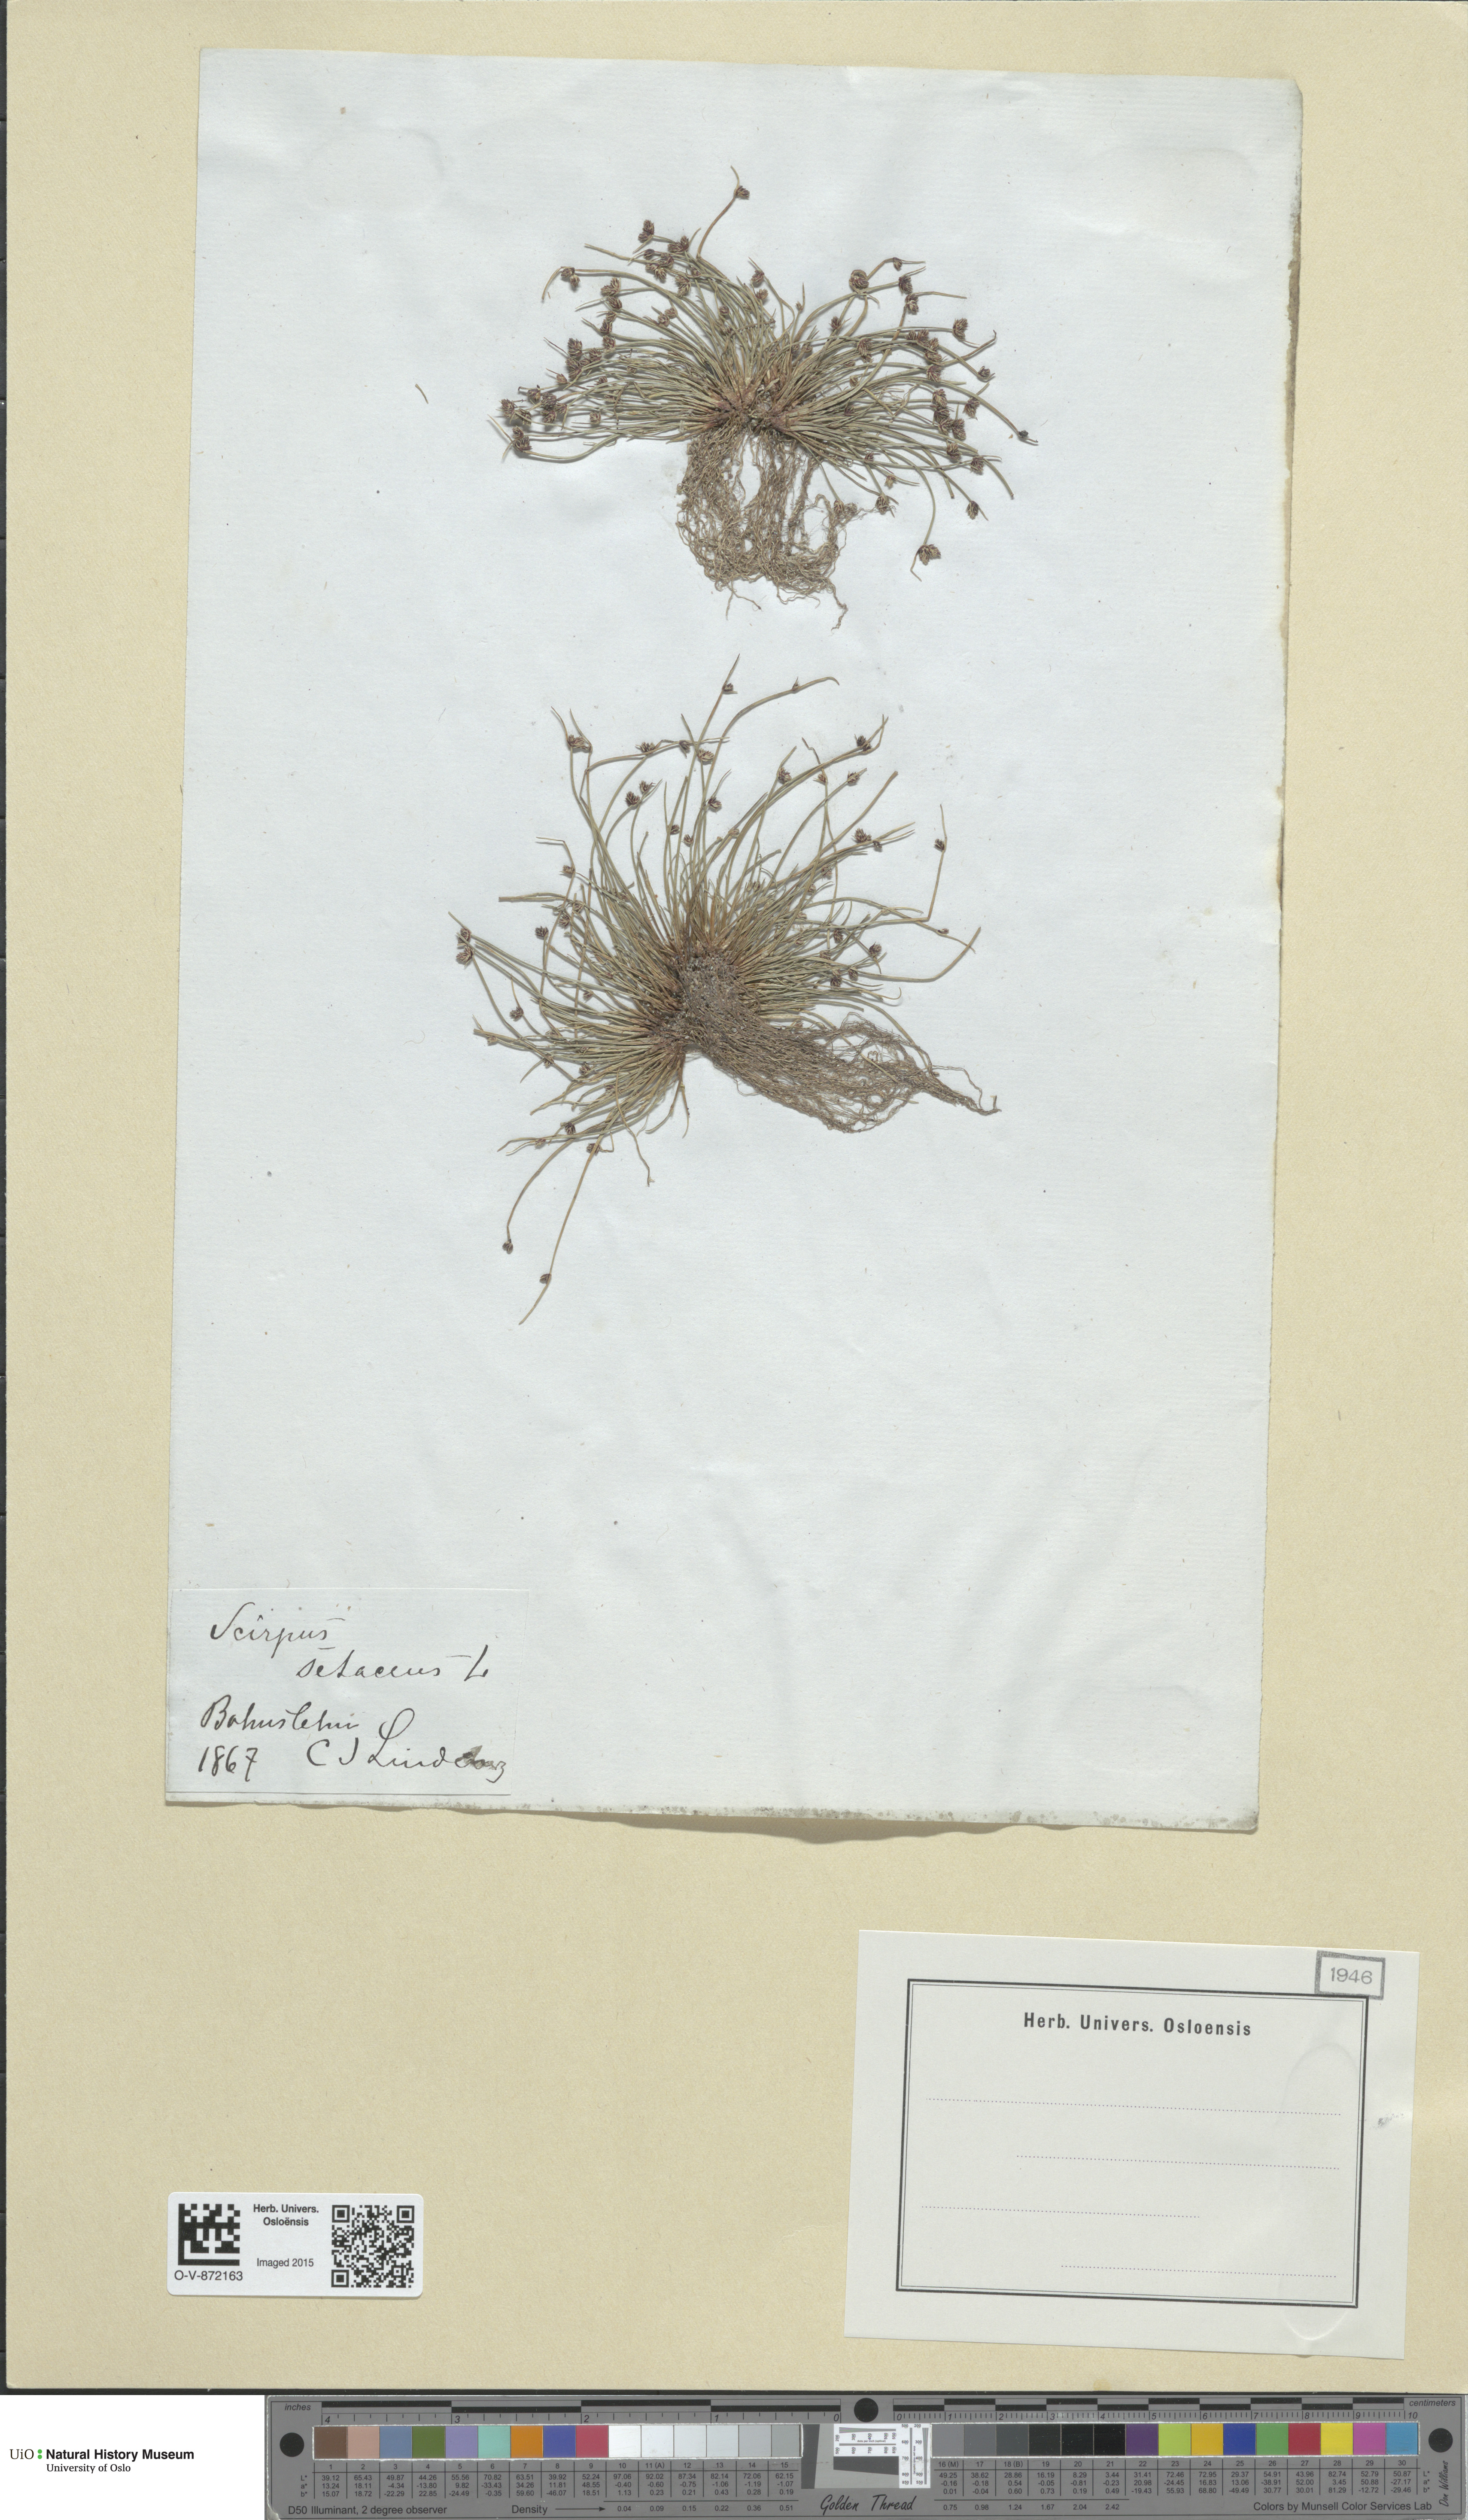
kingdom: Plantae
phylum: Tracheophyta
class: Liliopsida
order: Poales
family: Cyperaceae
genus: Isolepis
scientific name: Isolepis setacea
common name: Bristle club-rush
